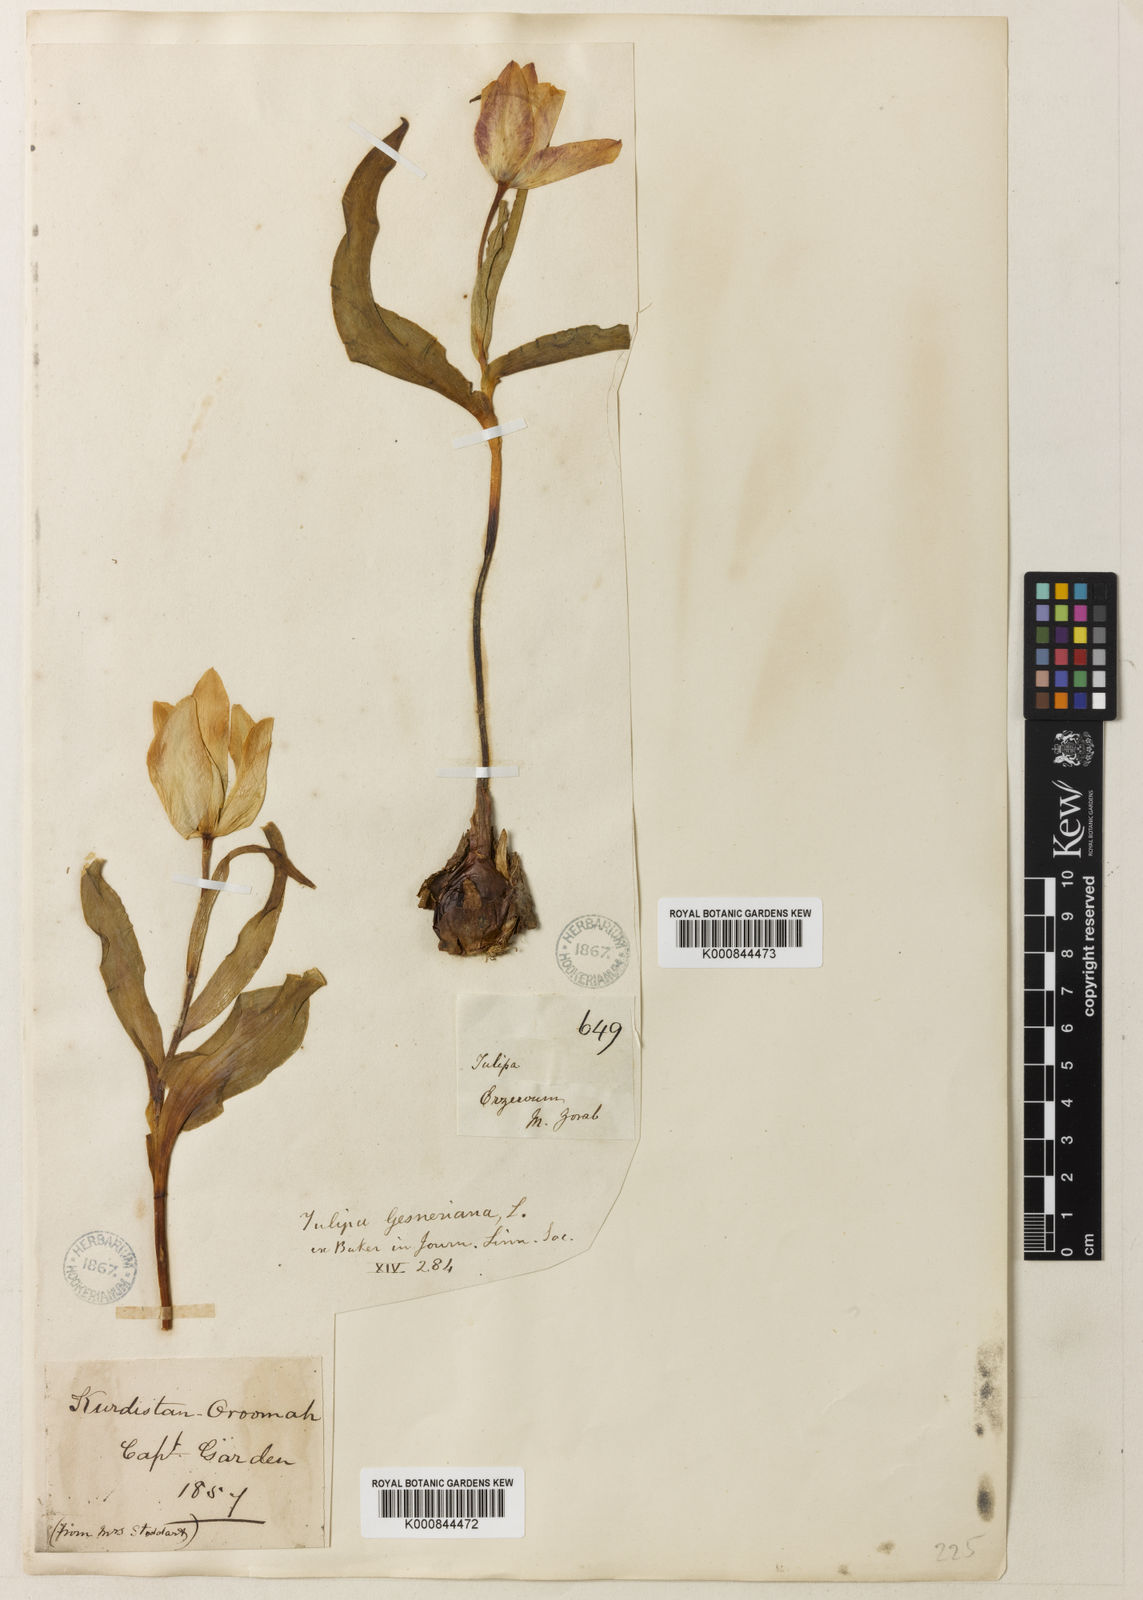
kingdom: Plantae
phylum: Tracheophyta
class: Liliopsida
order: Liliales
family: Liliaceae
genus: Tulipa
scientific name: Tulipa armena
